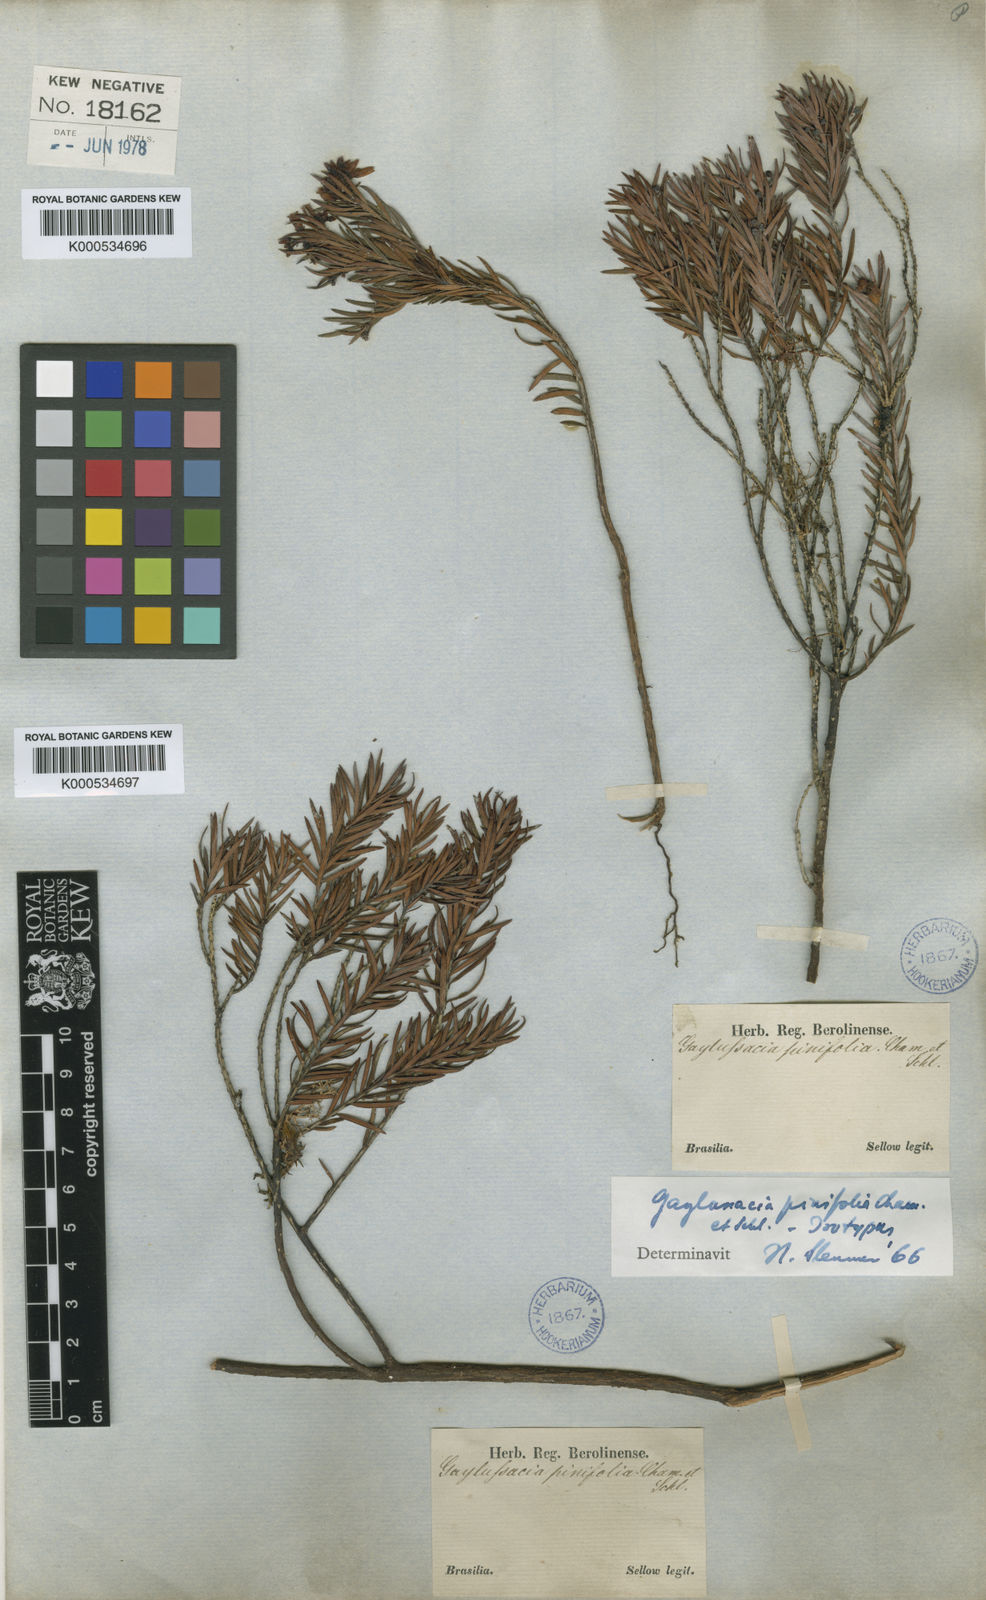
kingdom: Plantae
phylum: Tracheophyta
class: Magnoliopsida
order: Ericales
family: Ericaceae
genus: Gaylussacia
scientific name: Gaylussacia pinifolia
